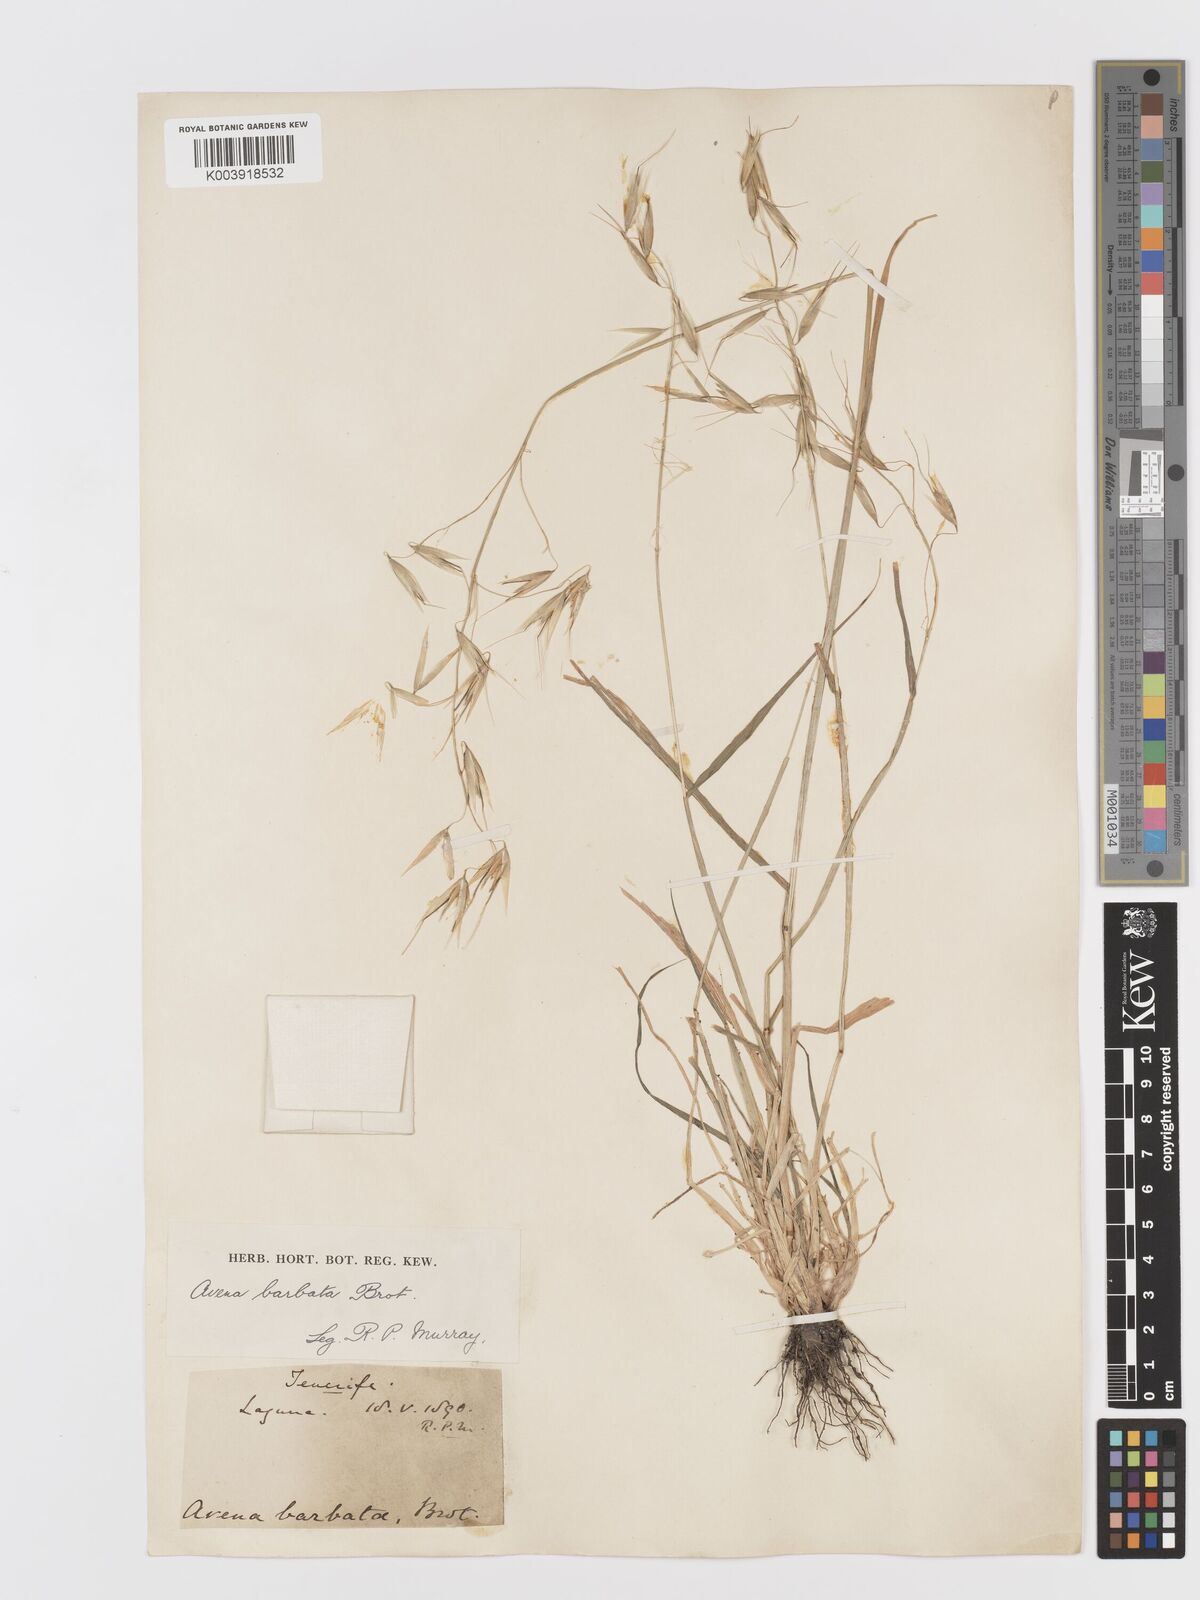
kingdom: Plantae
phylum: Tracheophyta
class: Liliopsida
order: Poales
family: Poaceae
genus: Avena
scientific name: Avena fatua
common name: Wild oat
